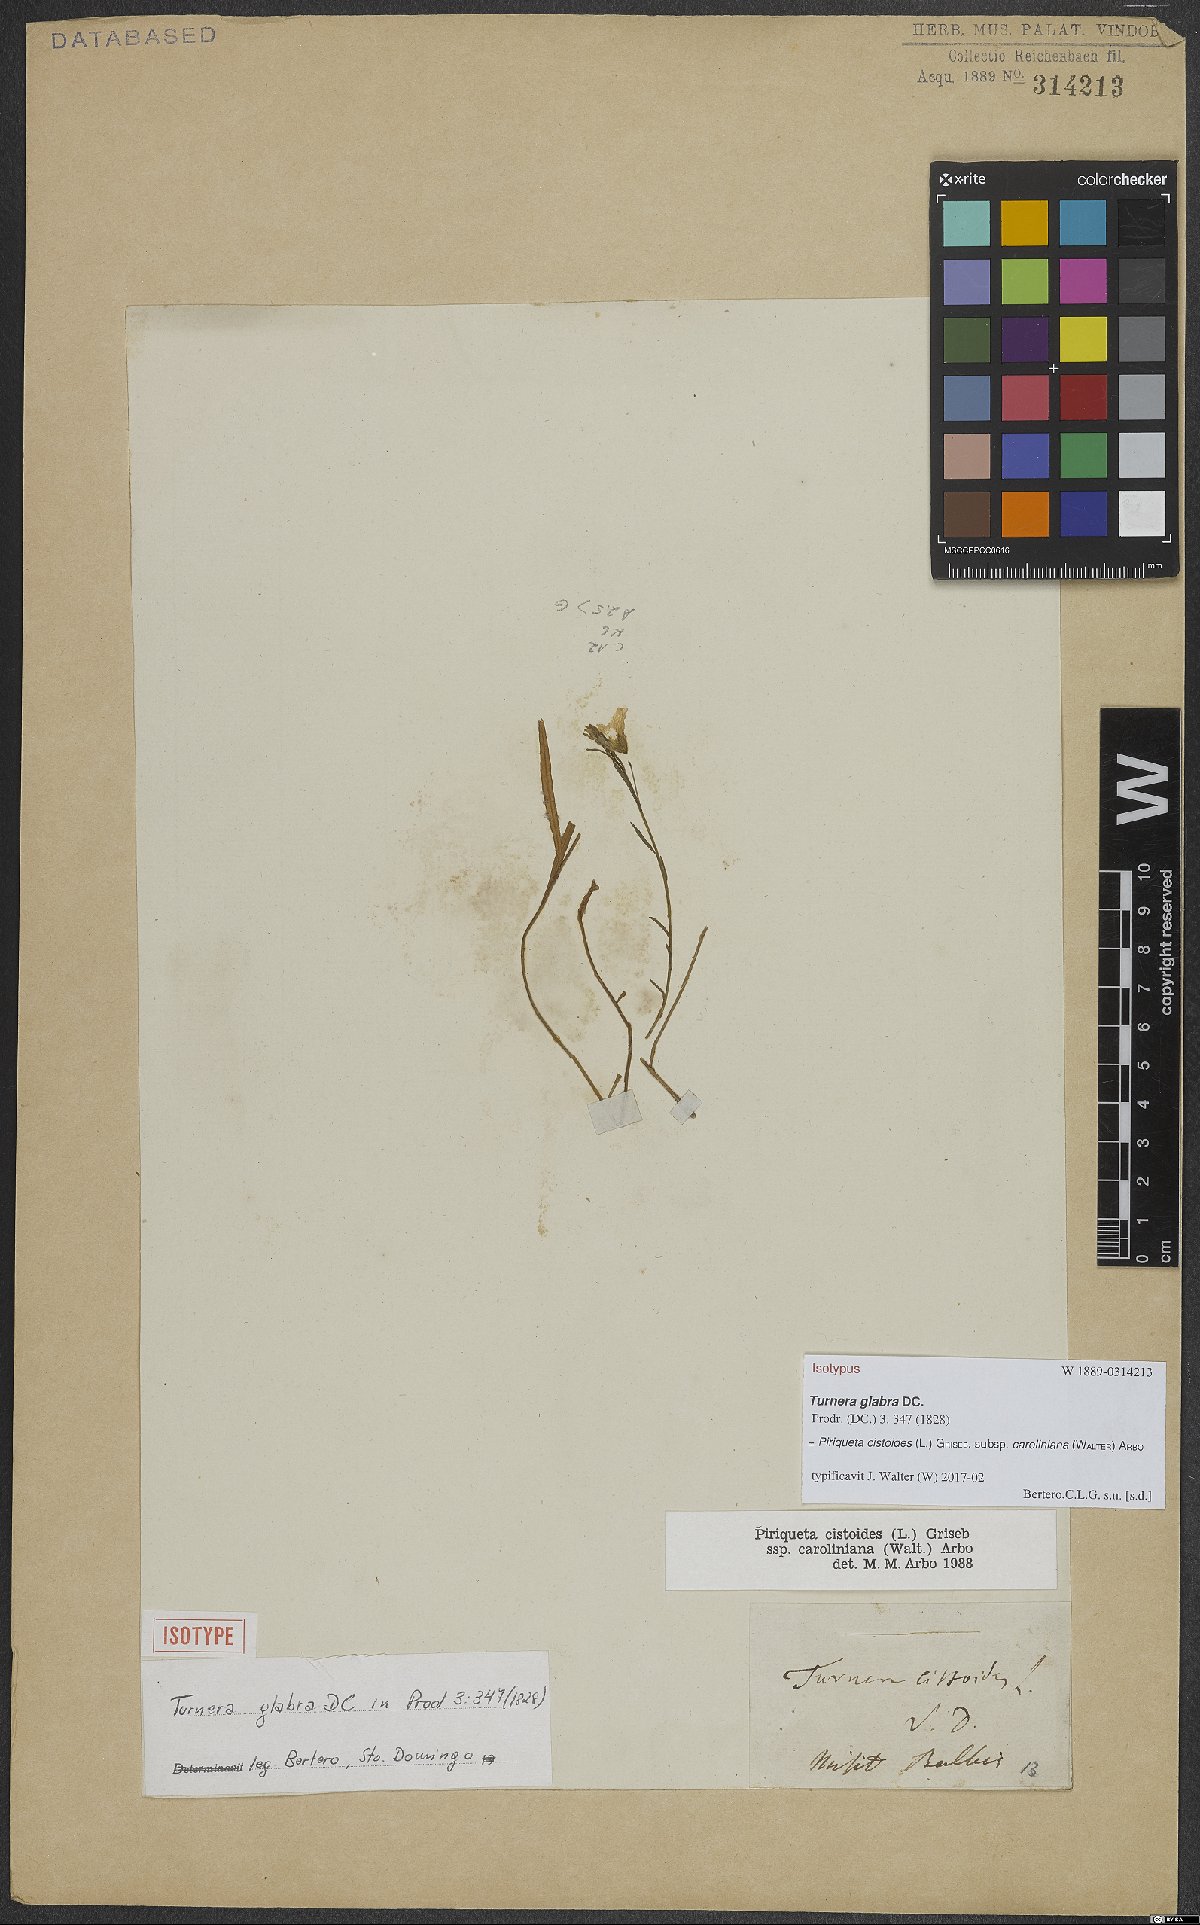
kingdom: Plantae
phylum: Tracheophyta
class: Magnoliopsida
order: Malpighiales
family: Turneraceae
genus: Piriqueta
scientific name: Piriqueta cistoides
